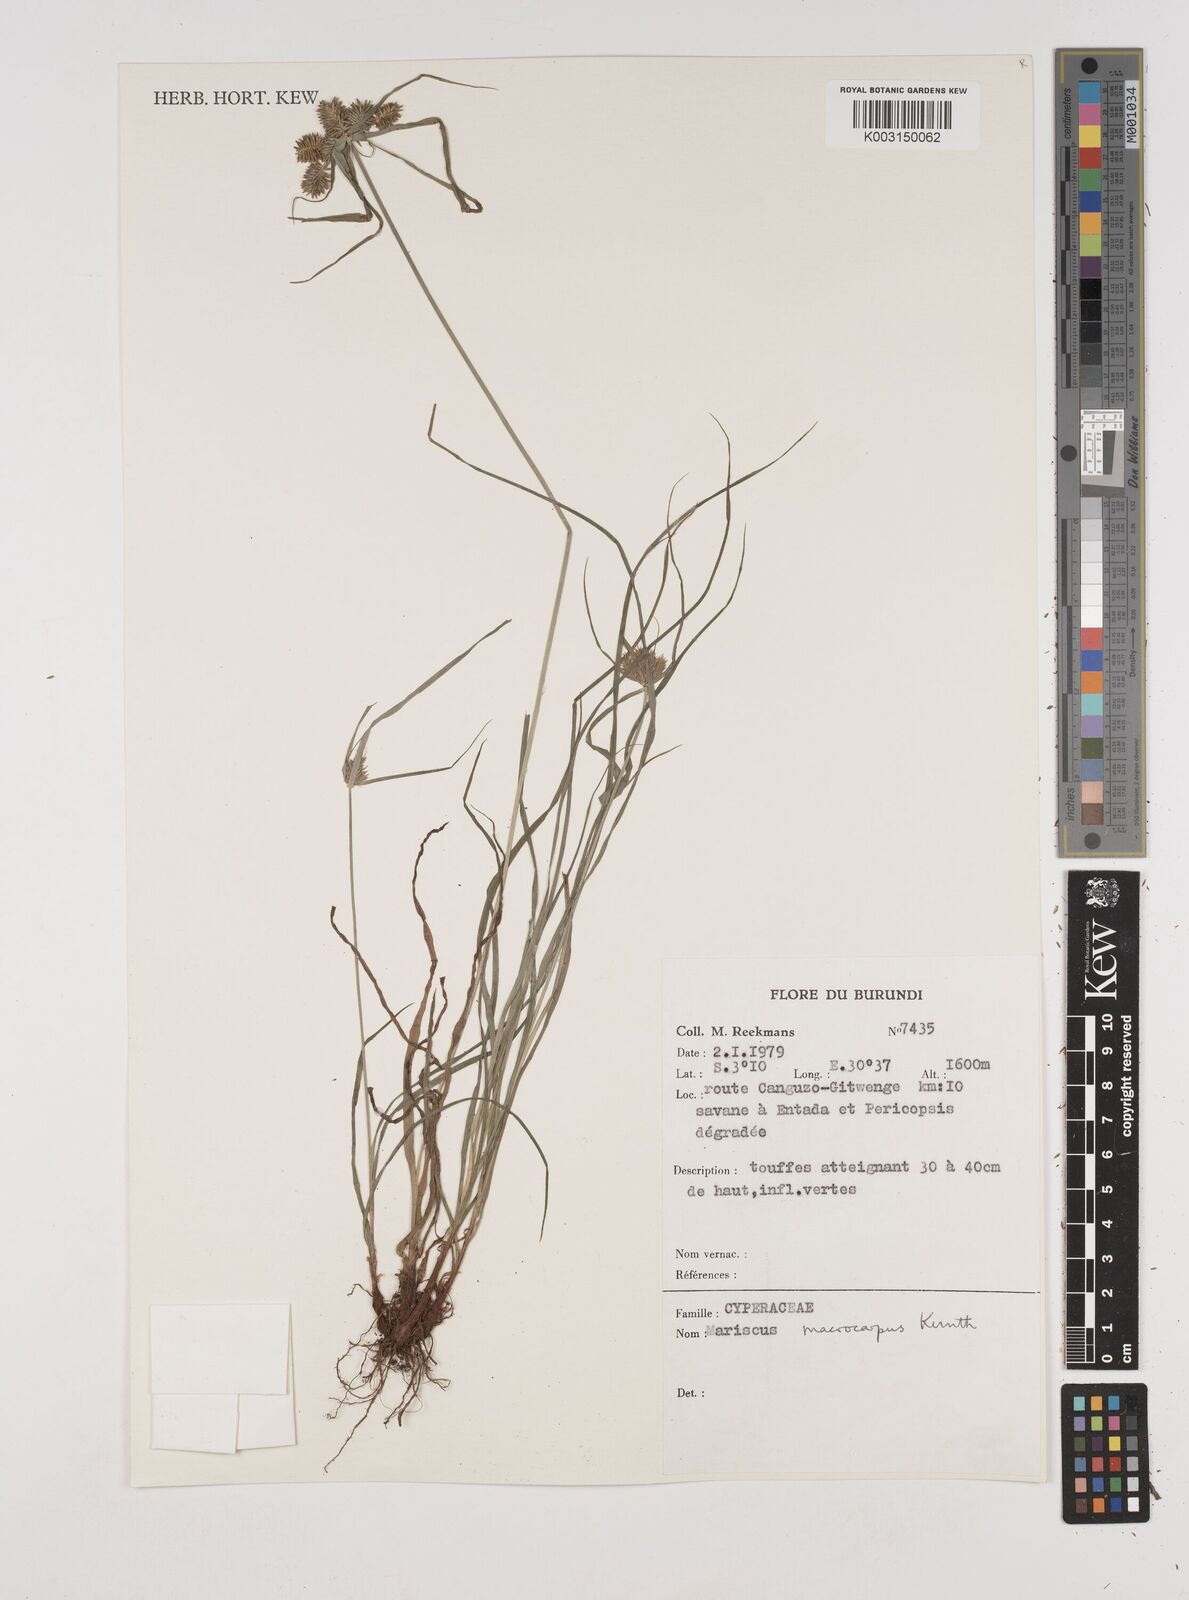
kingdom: Plantae
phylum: Tracheophyta
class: Liliopsida
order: Poales
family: Cyperaceae
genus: Cyperus
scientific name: Cyperus macrocarpus
